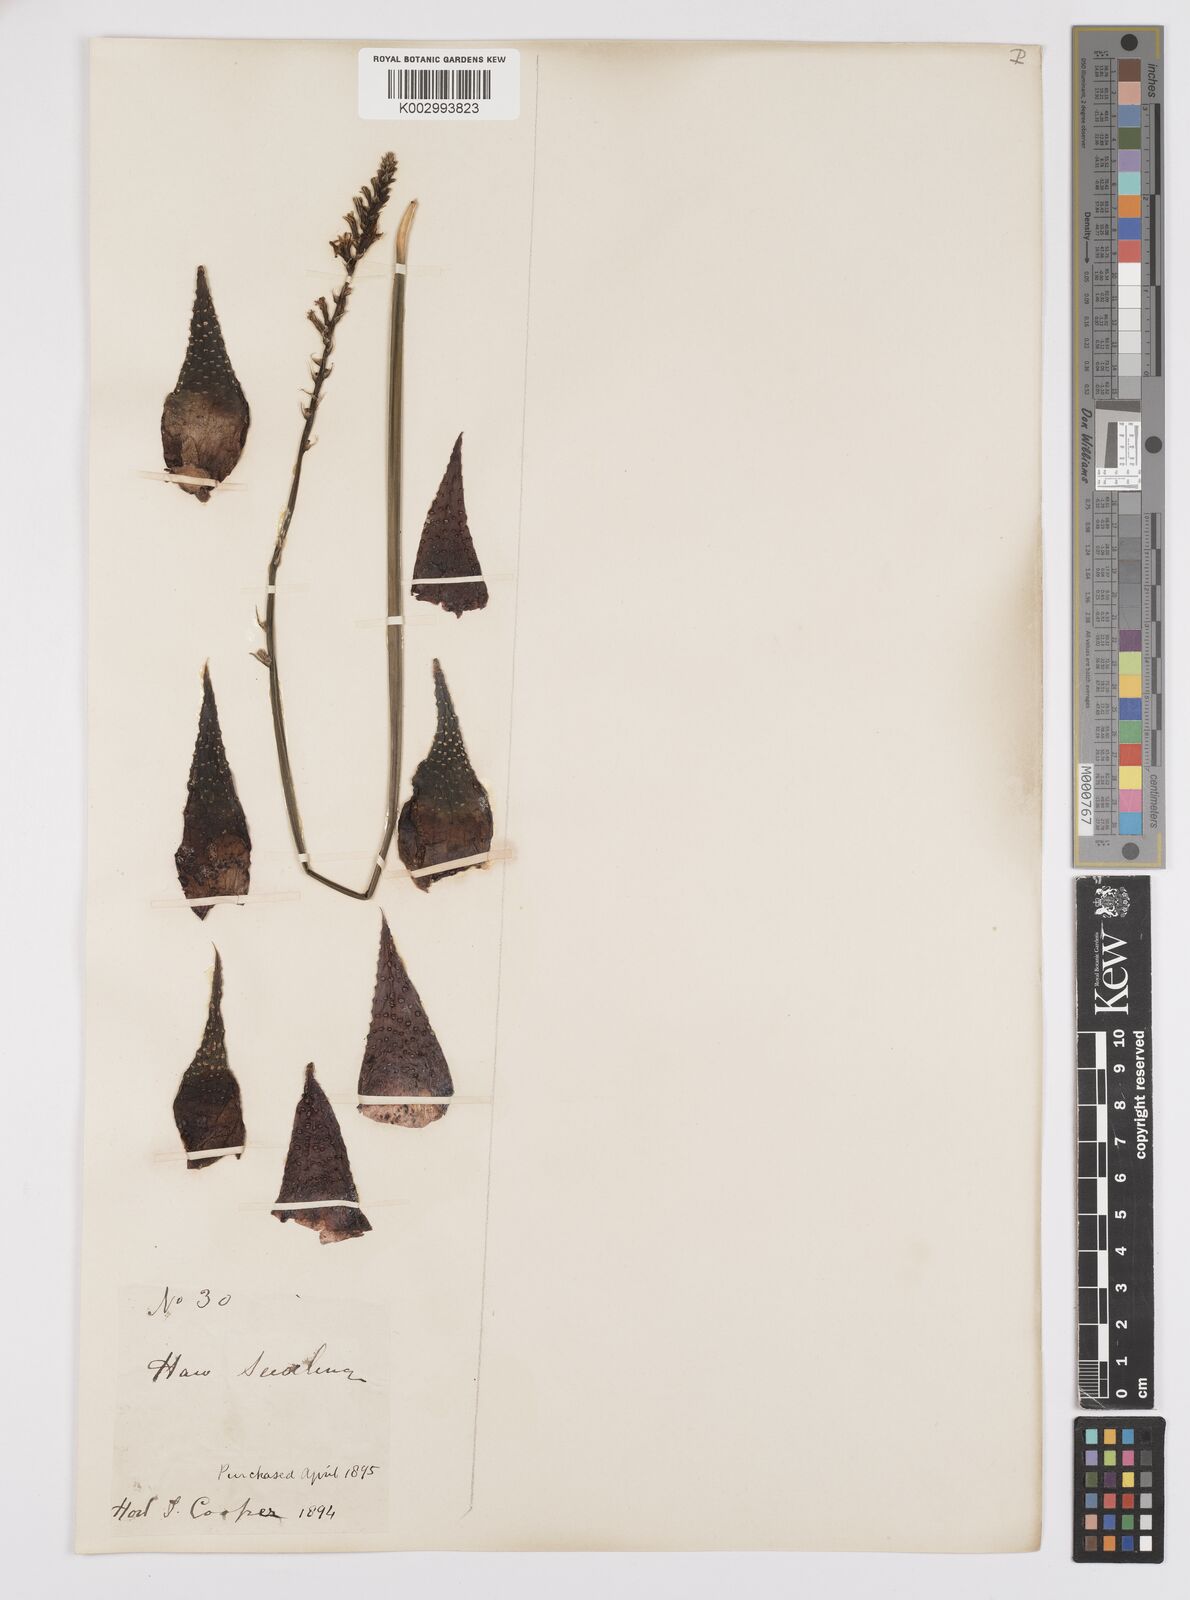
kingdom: Plantae
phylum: Tracheophyta
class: Liliopsida
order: Asparagales
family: Asphodelaceae
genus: Tulista
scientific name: Tulista pumila
